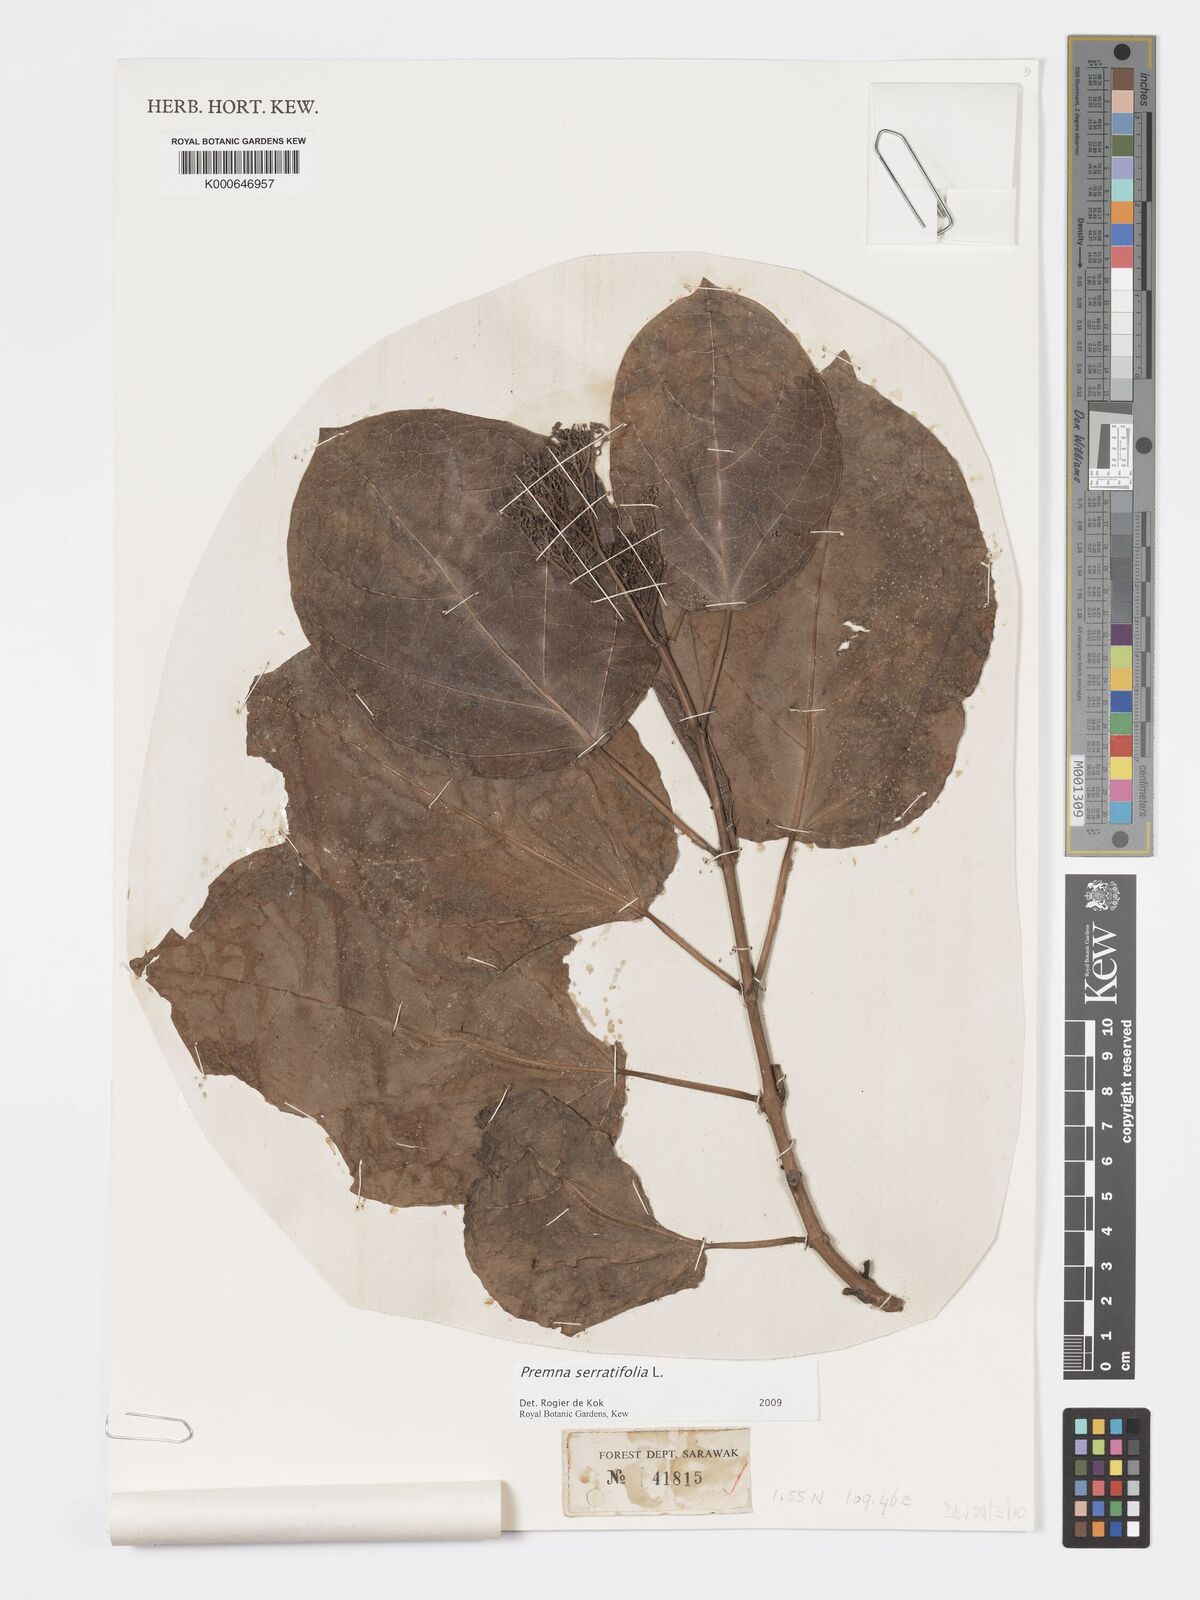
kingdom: Plantae
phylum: Tracheophyta
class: Magnoliopsida
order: Lamiales
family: Lamiaceae
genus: Premna
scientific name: Premna serratifolia
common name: Bastard guelder
